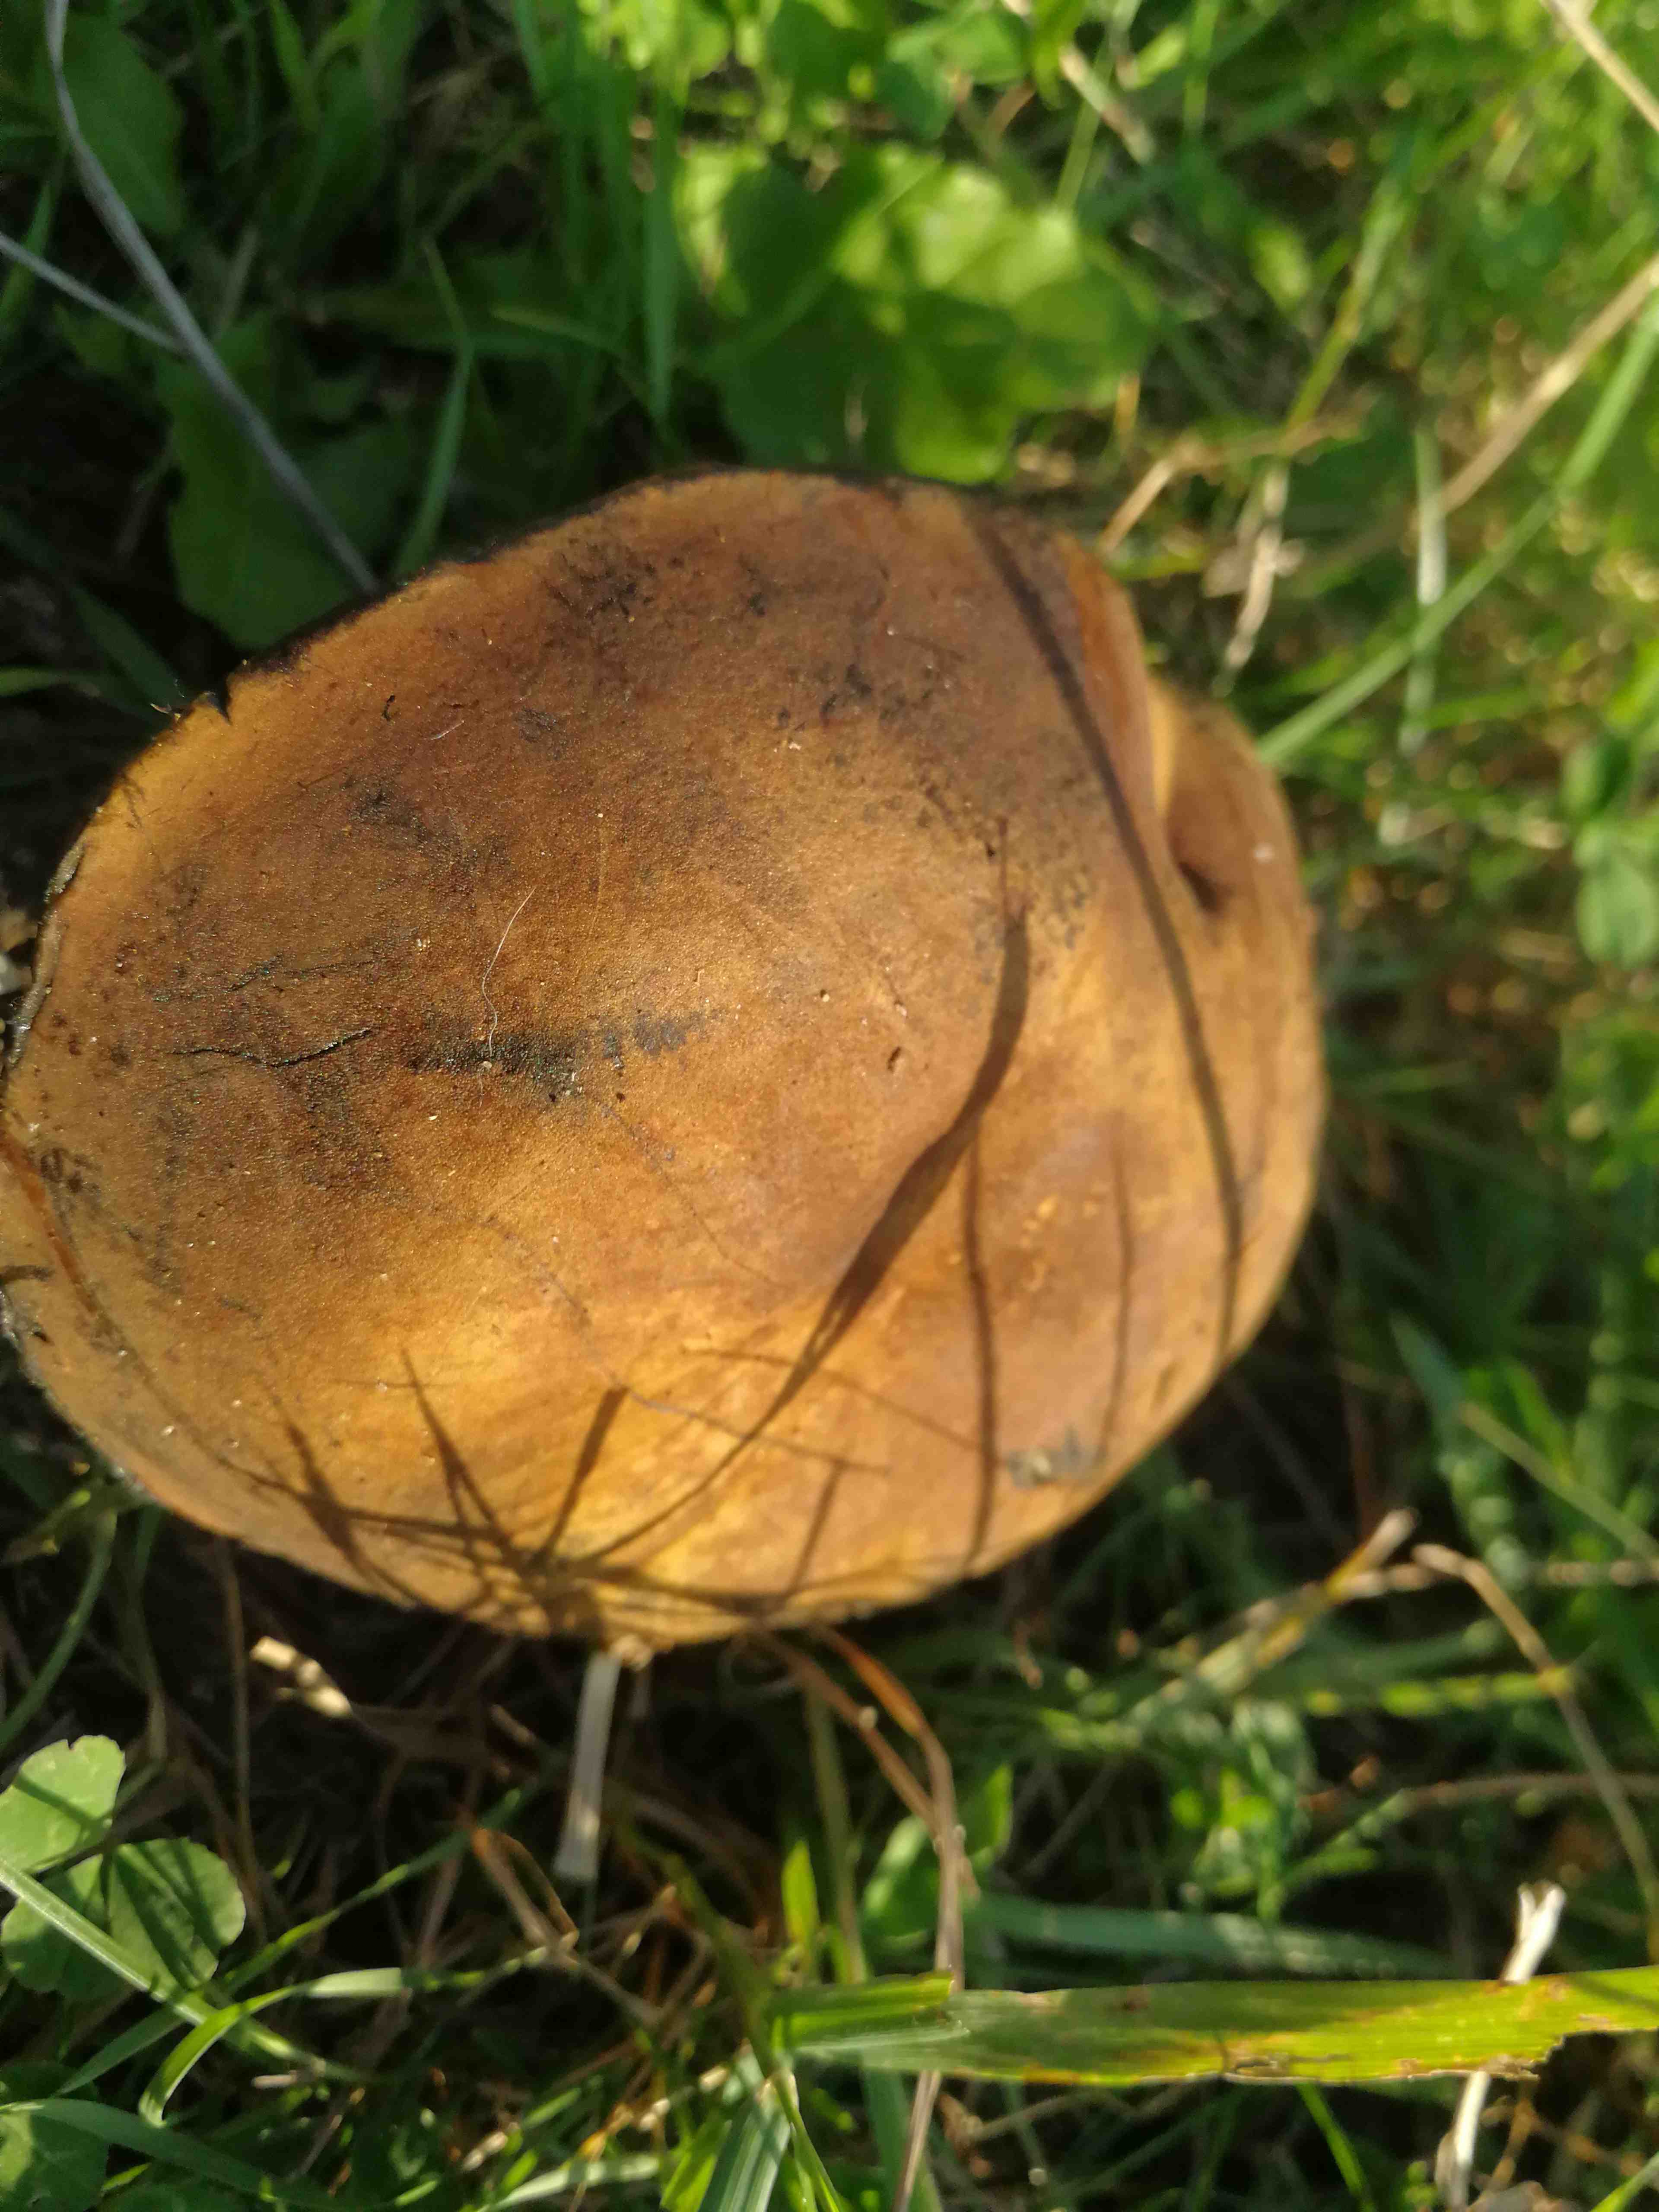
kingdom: Fungi
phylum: Basidiomycota
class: Agaricomycetes
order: Boletales
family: Boletaceae
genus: Neoboletus
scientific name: Neoboletus xanthopus
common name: finprikket indigorørhat
